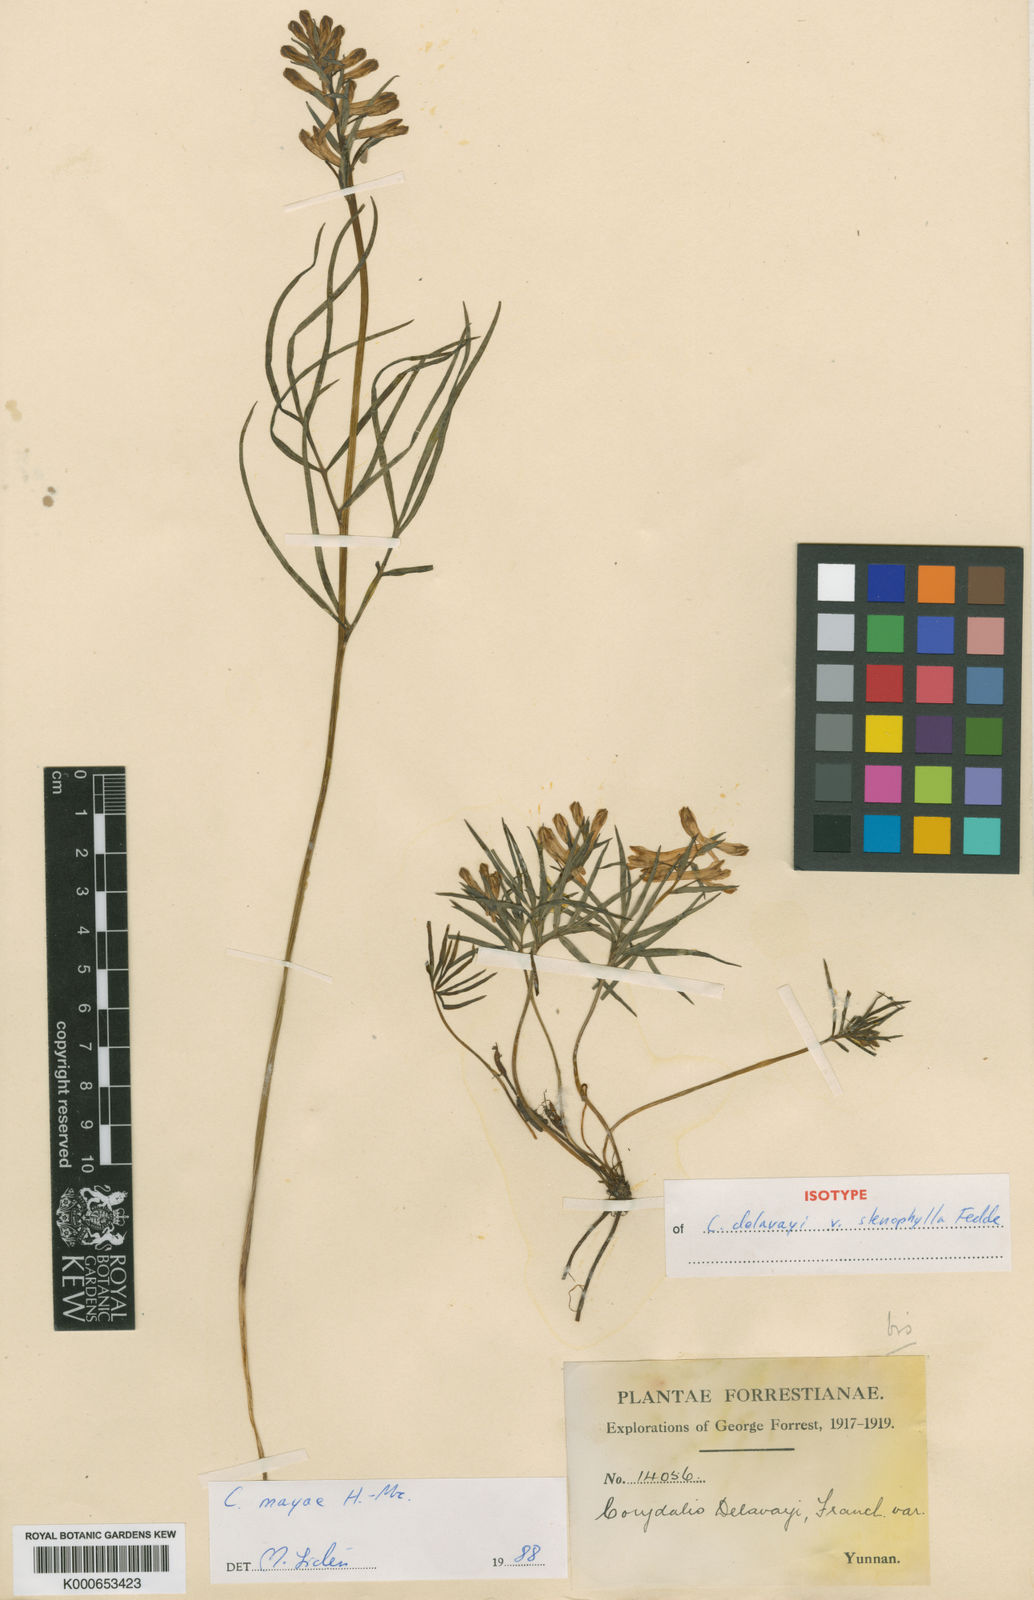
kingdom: Plantae
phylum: Tracheophyta
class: Magnoliopsida
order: Ranunculales
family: Papaveraceae
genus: Corydalis
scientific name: Corydalis mayae
